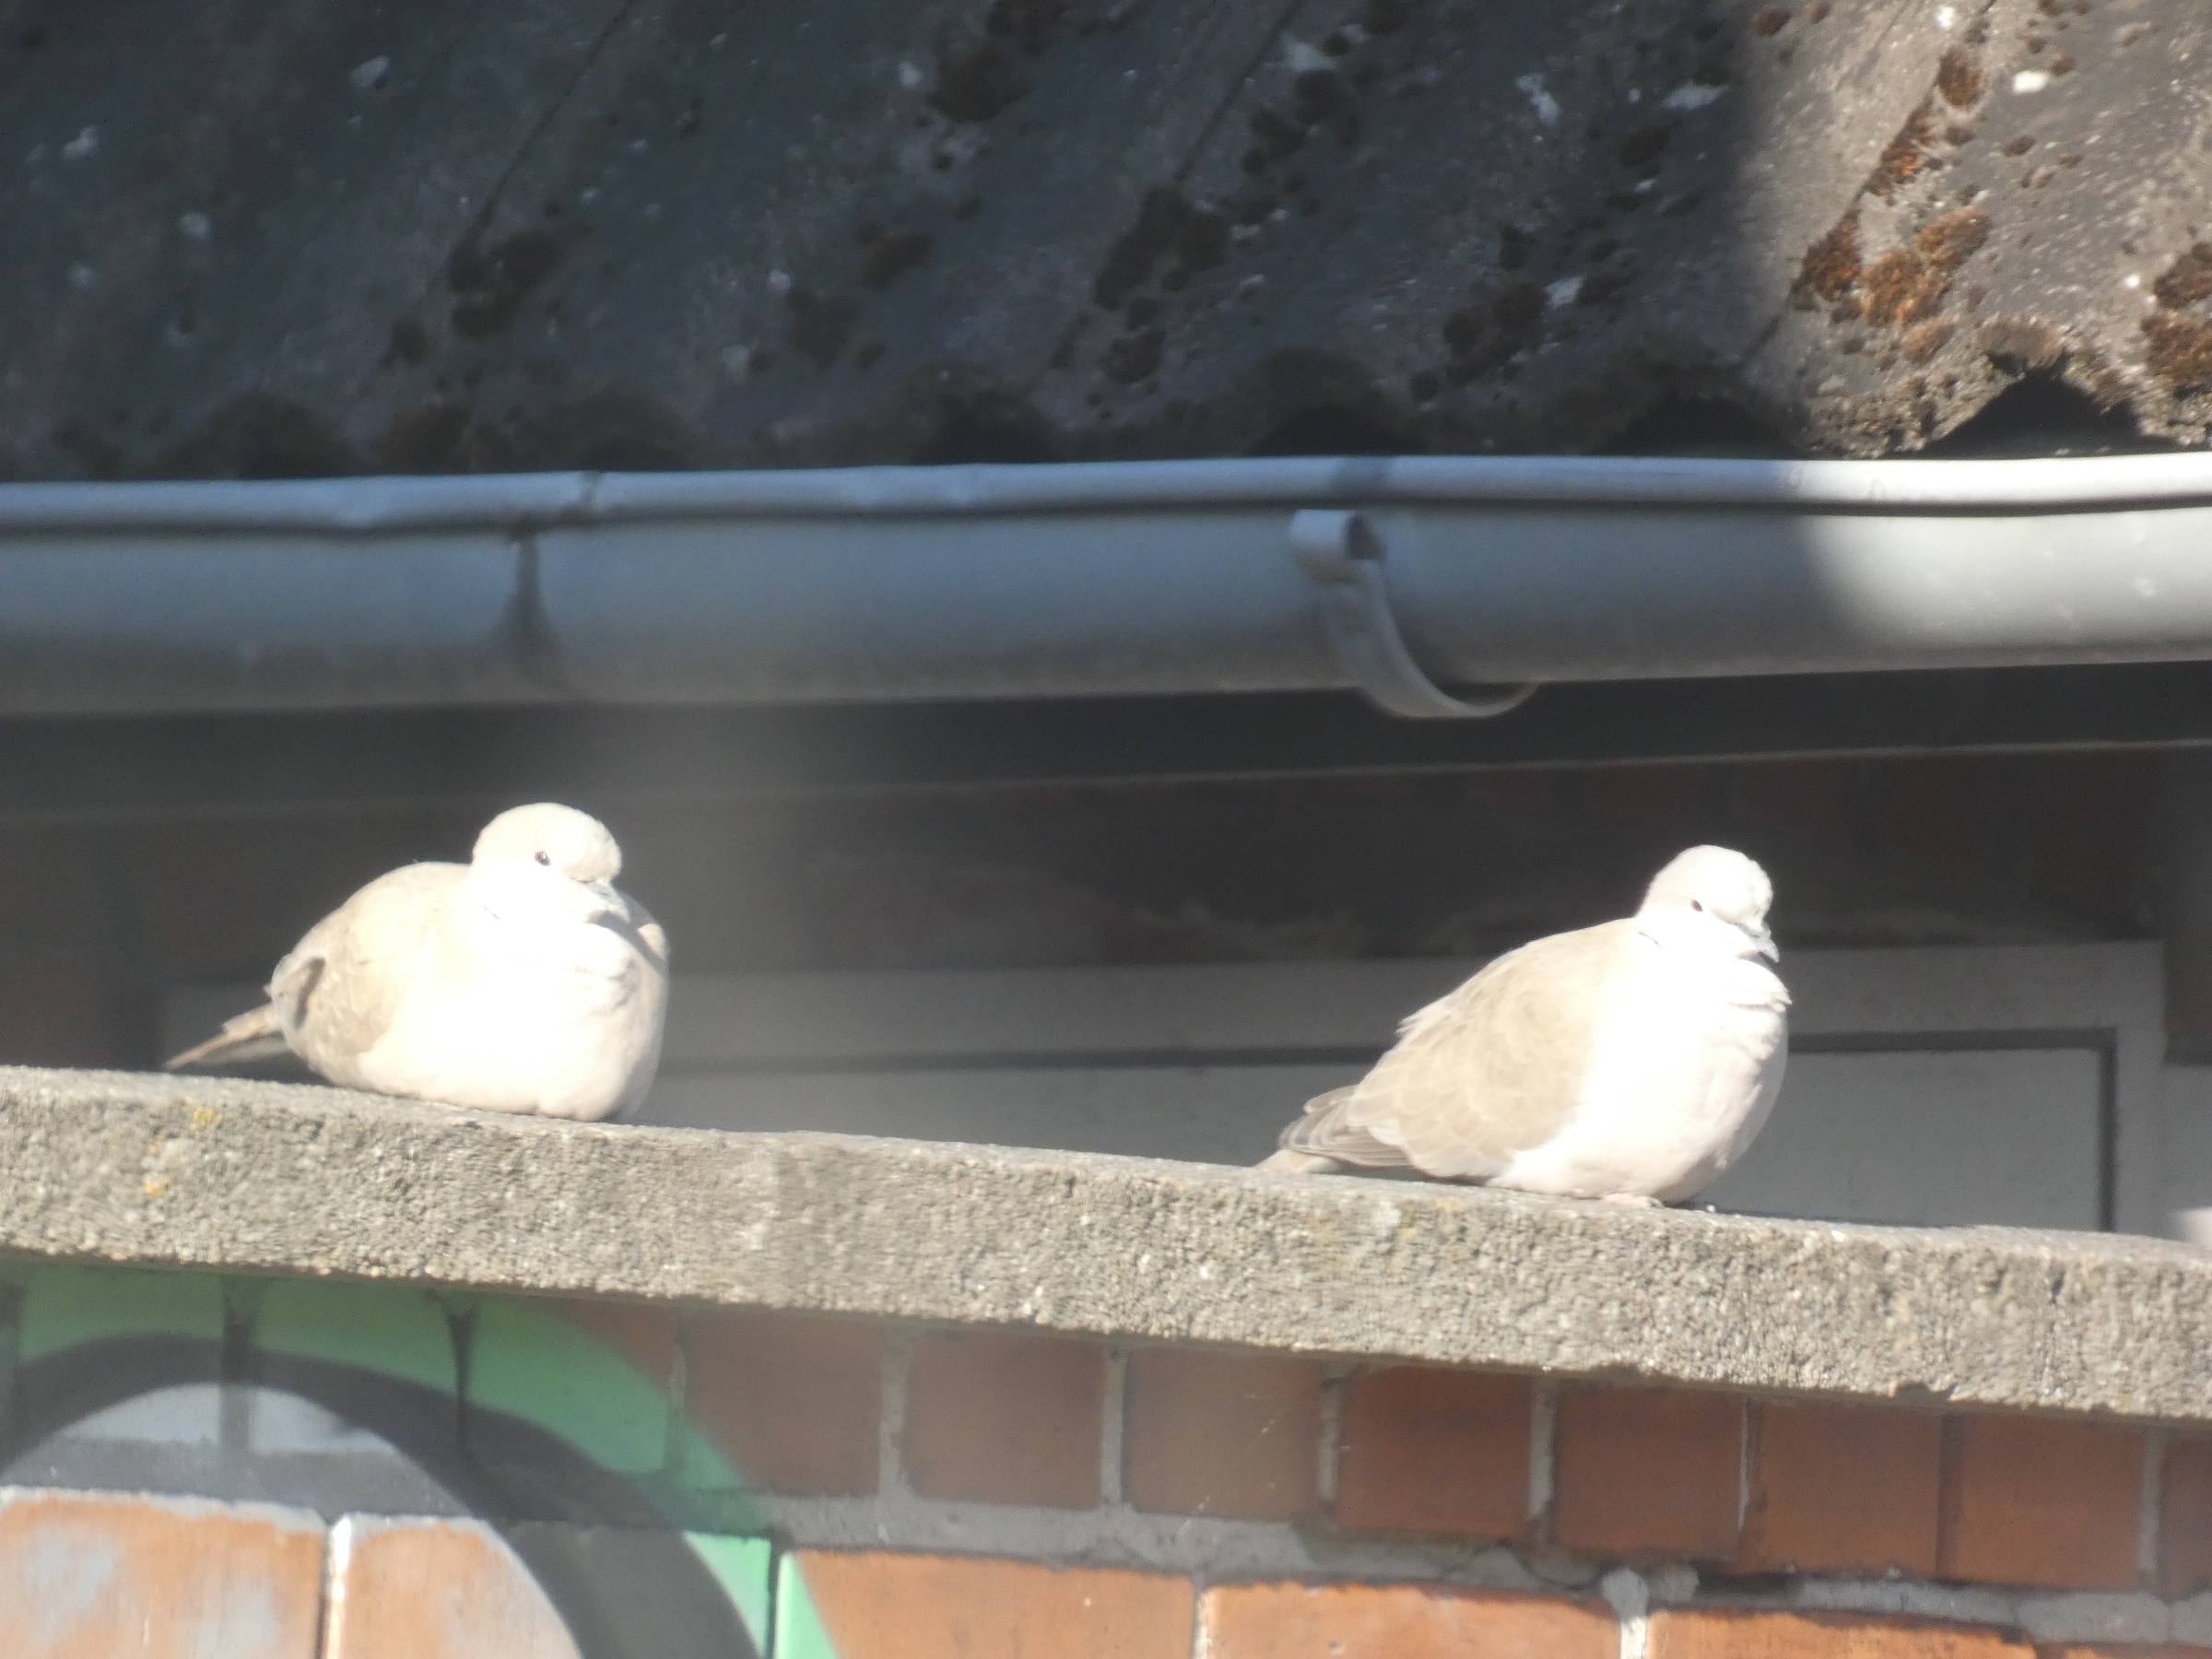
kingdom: Animalia
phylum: Chordata
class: Aves
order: Columbiformes
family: Columbidae
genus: Streptopelia
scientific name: Streptopelia decaocto
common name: Tyrkerdue
